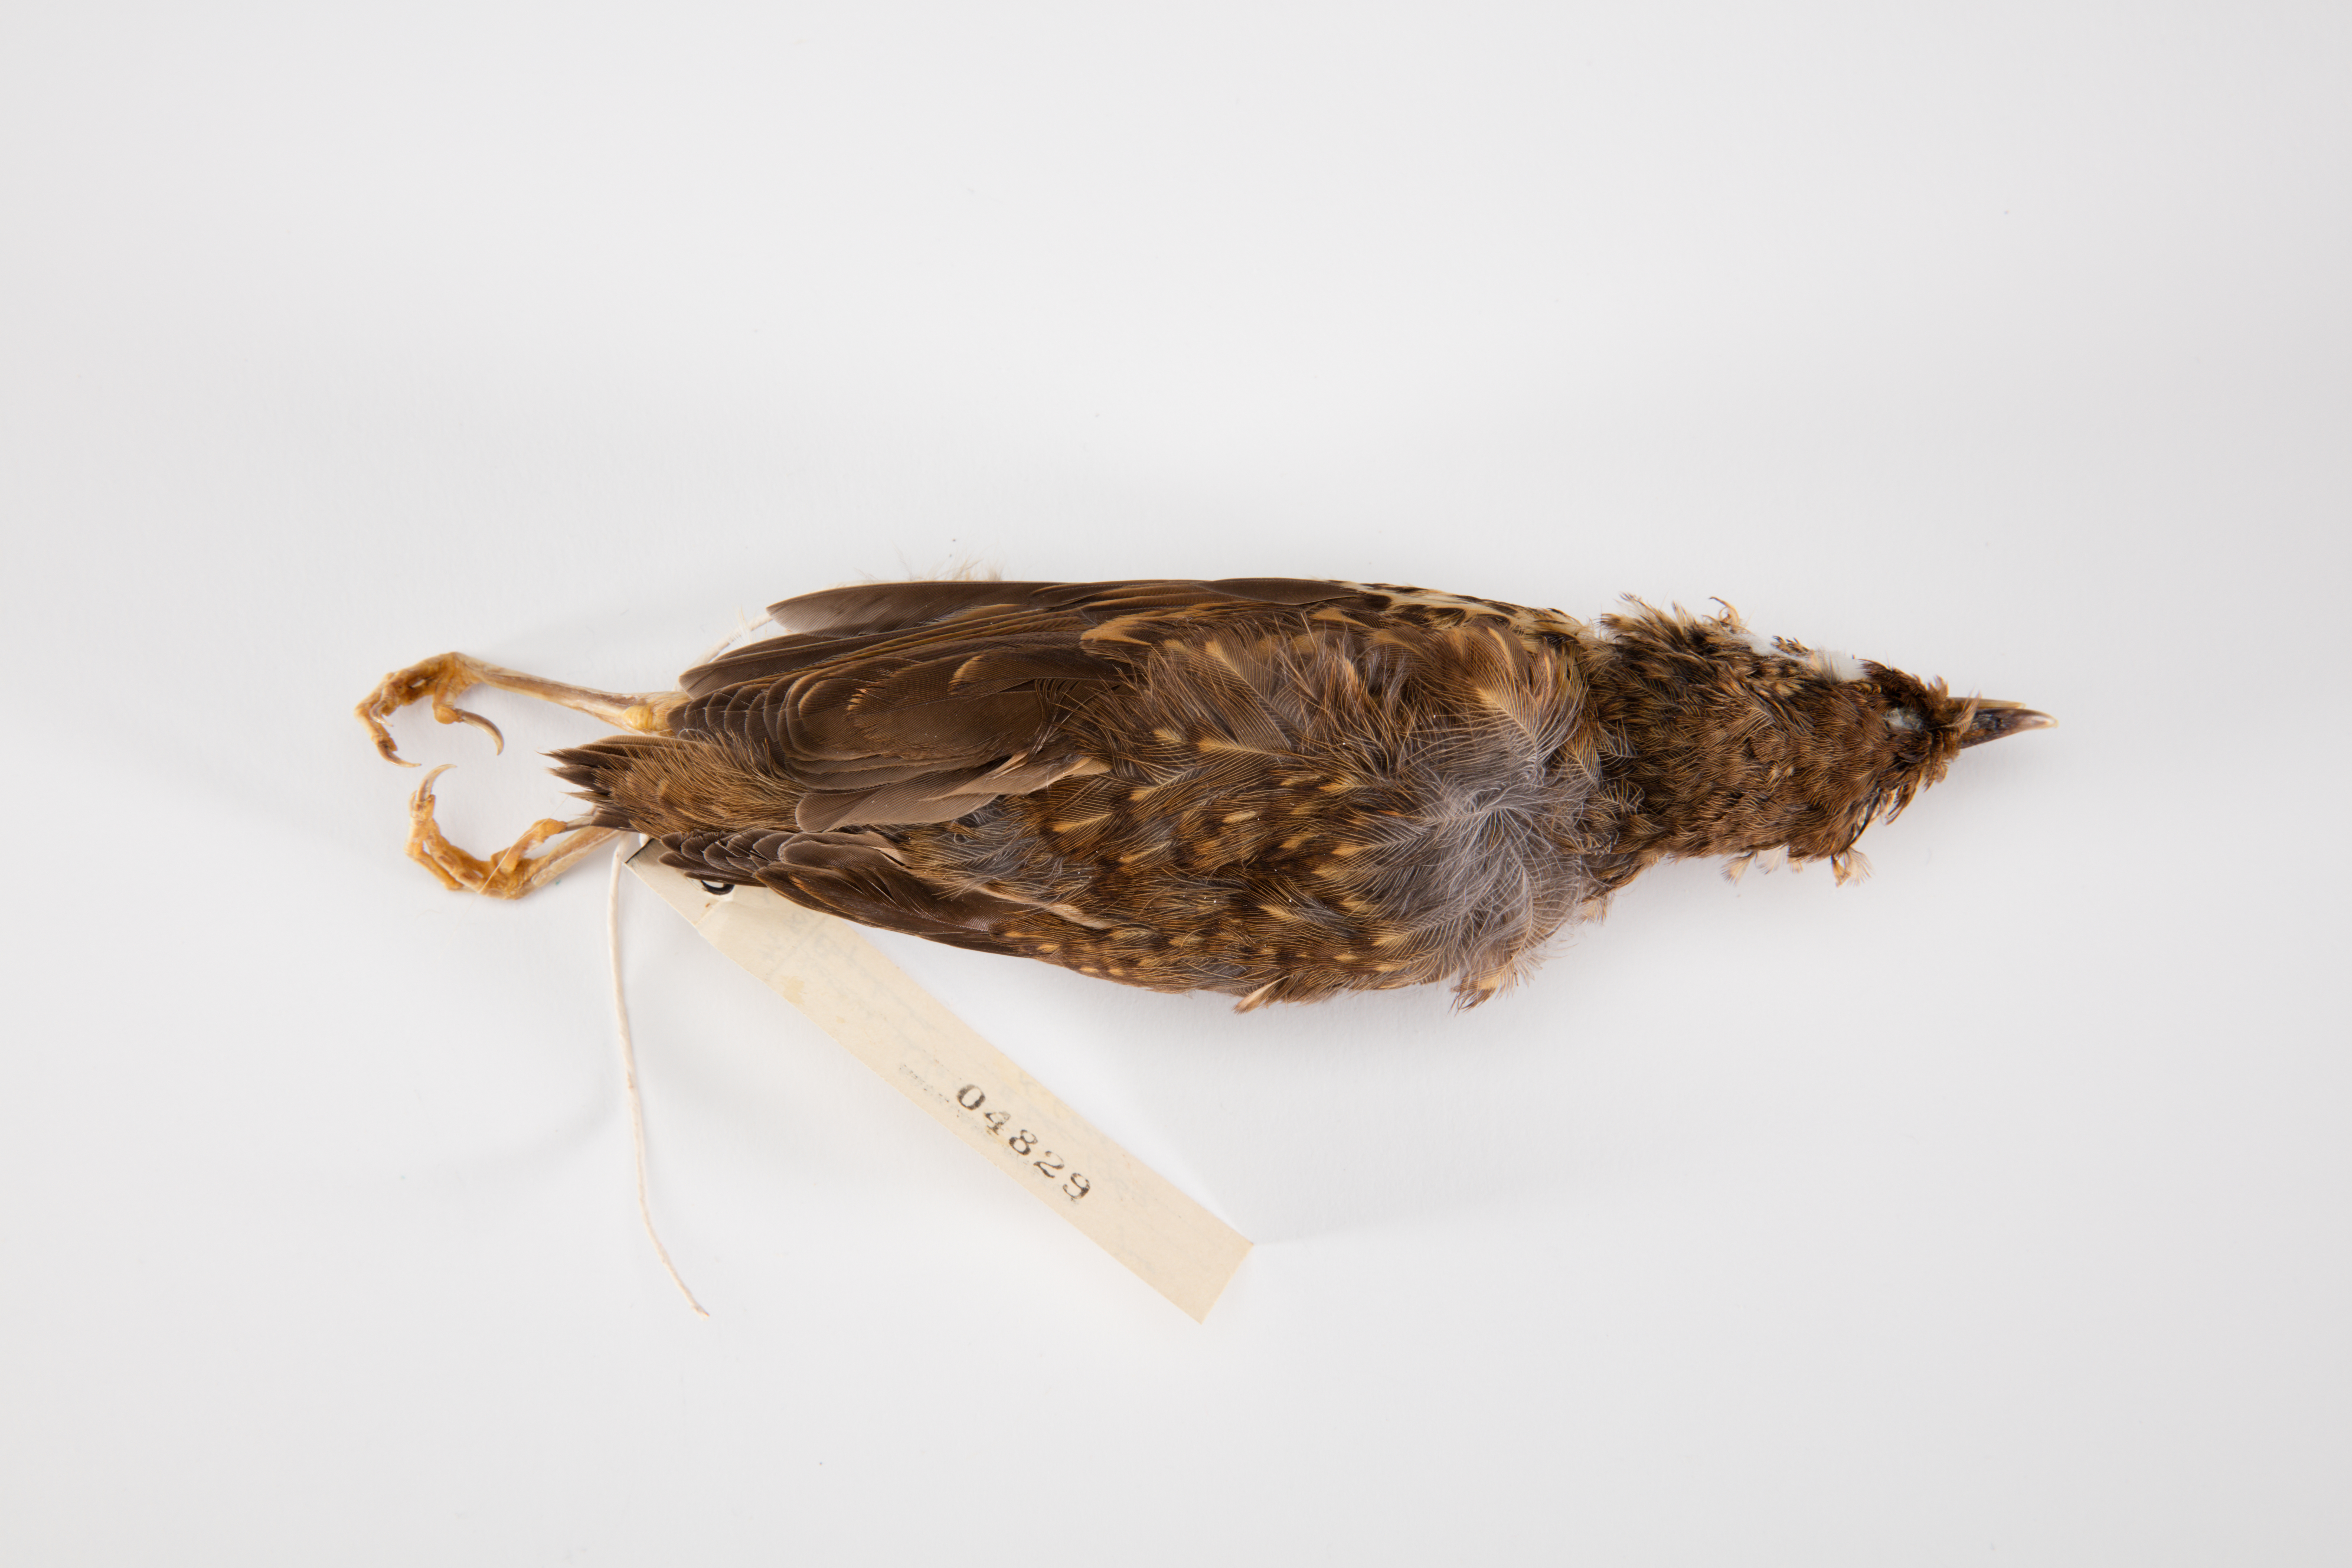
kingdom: Animalia
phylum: Chordata
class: Aves
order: Passeriformes
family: Turdidae
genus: Turdus
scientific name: Turdus philomelos
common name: Song thrush
